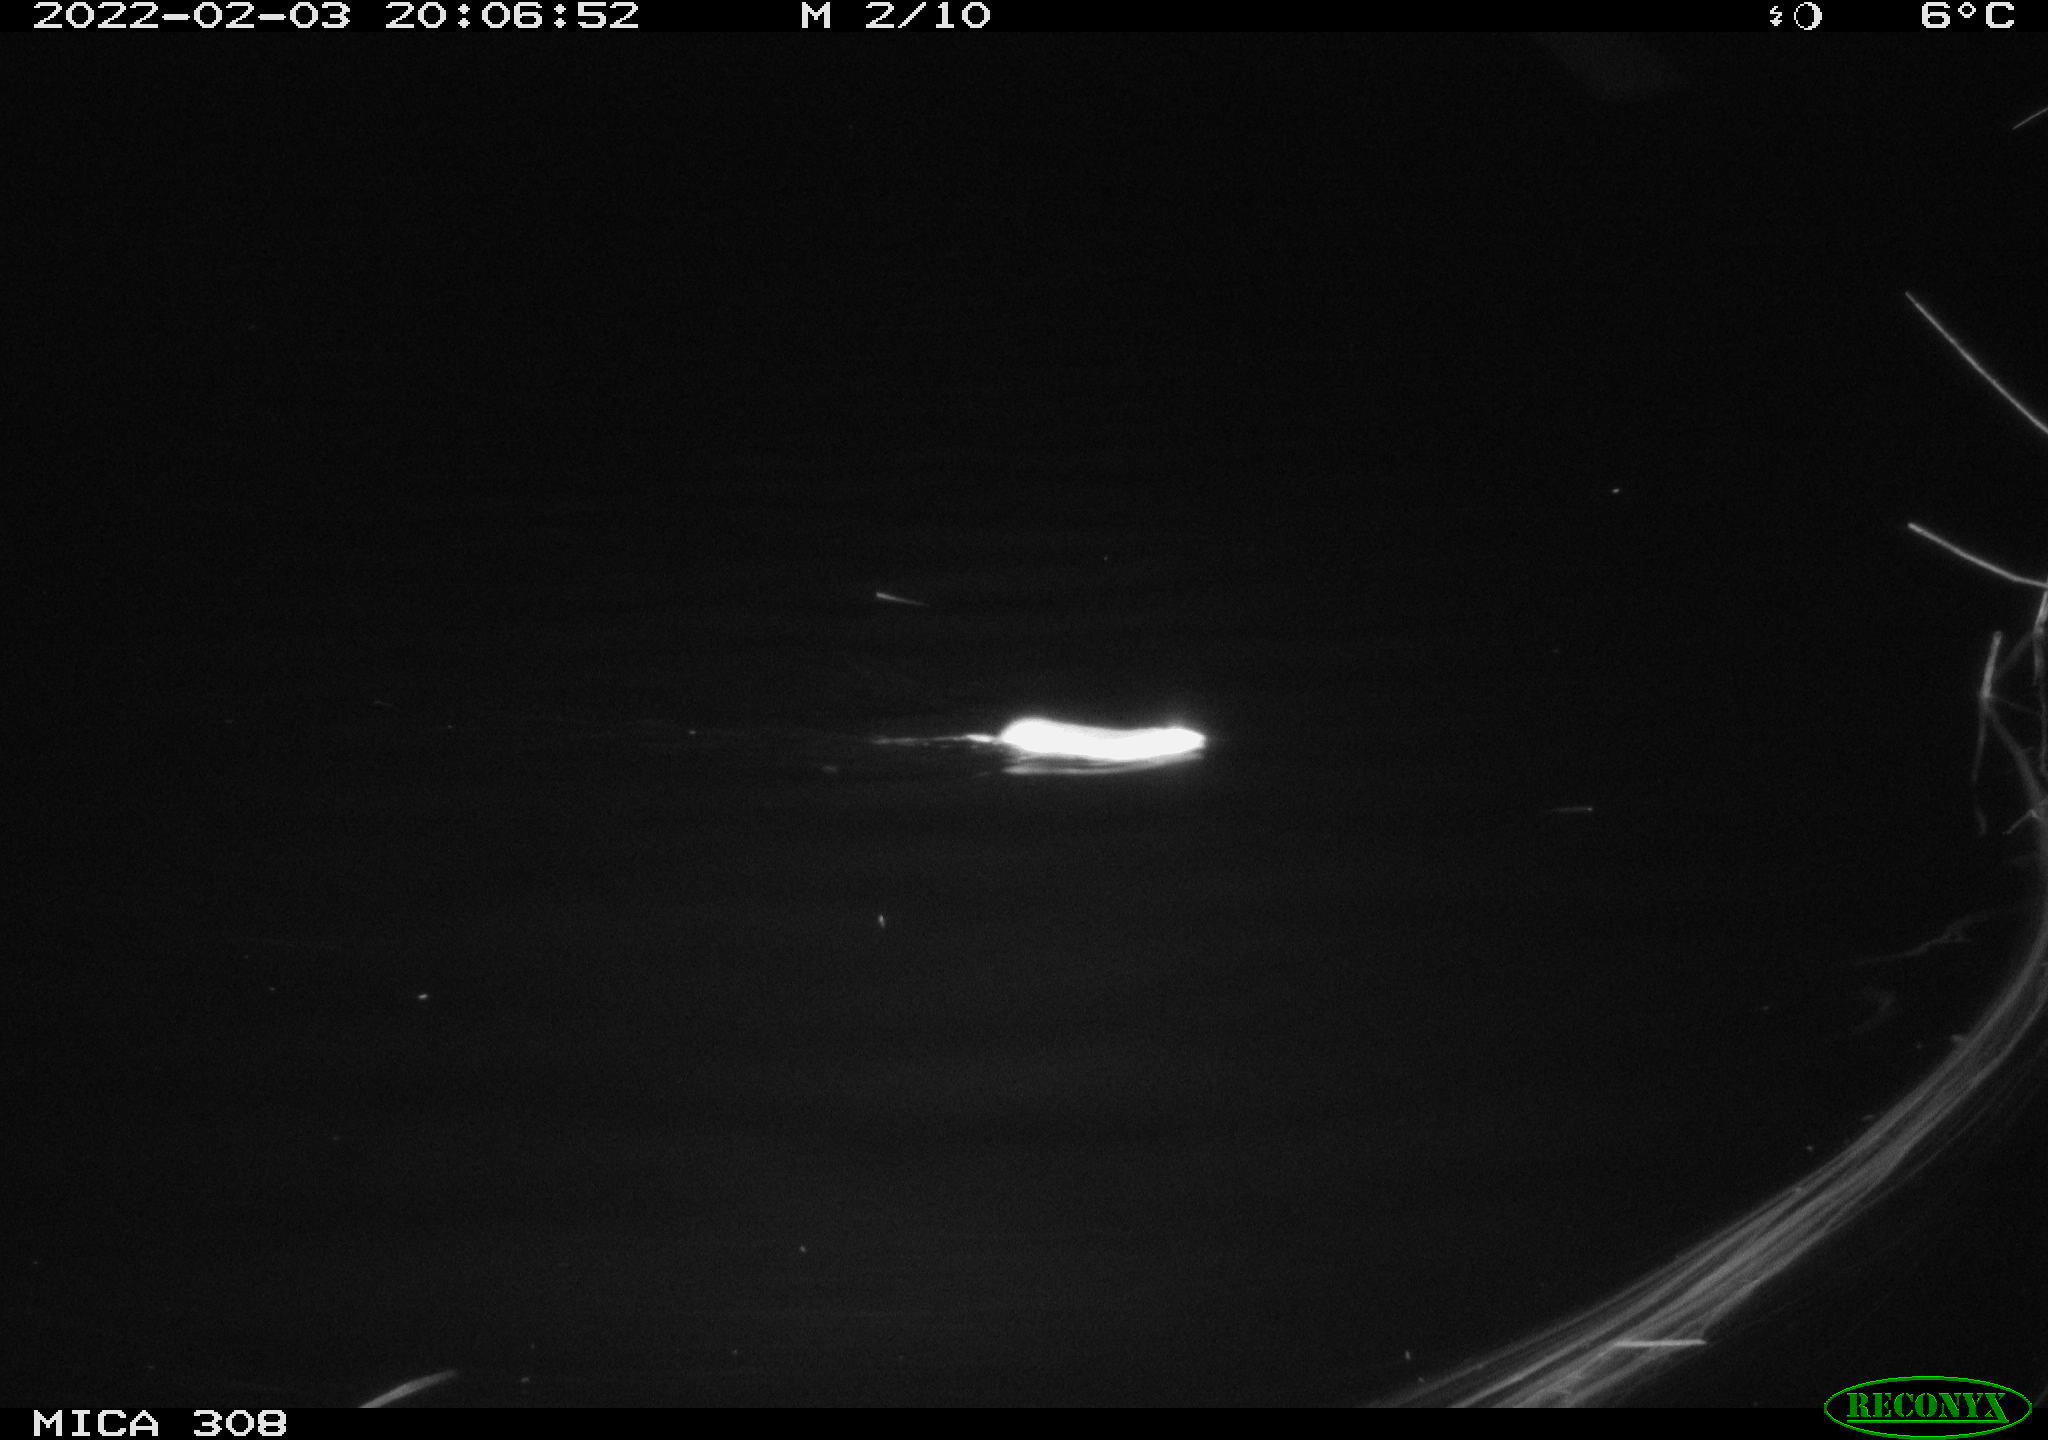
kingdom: Animalia
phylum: Chordata
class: Mammalia
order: Rodentia
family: Muridae
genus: Rattus
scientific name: Rattus norvegicus
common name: Brown rat
